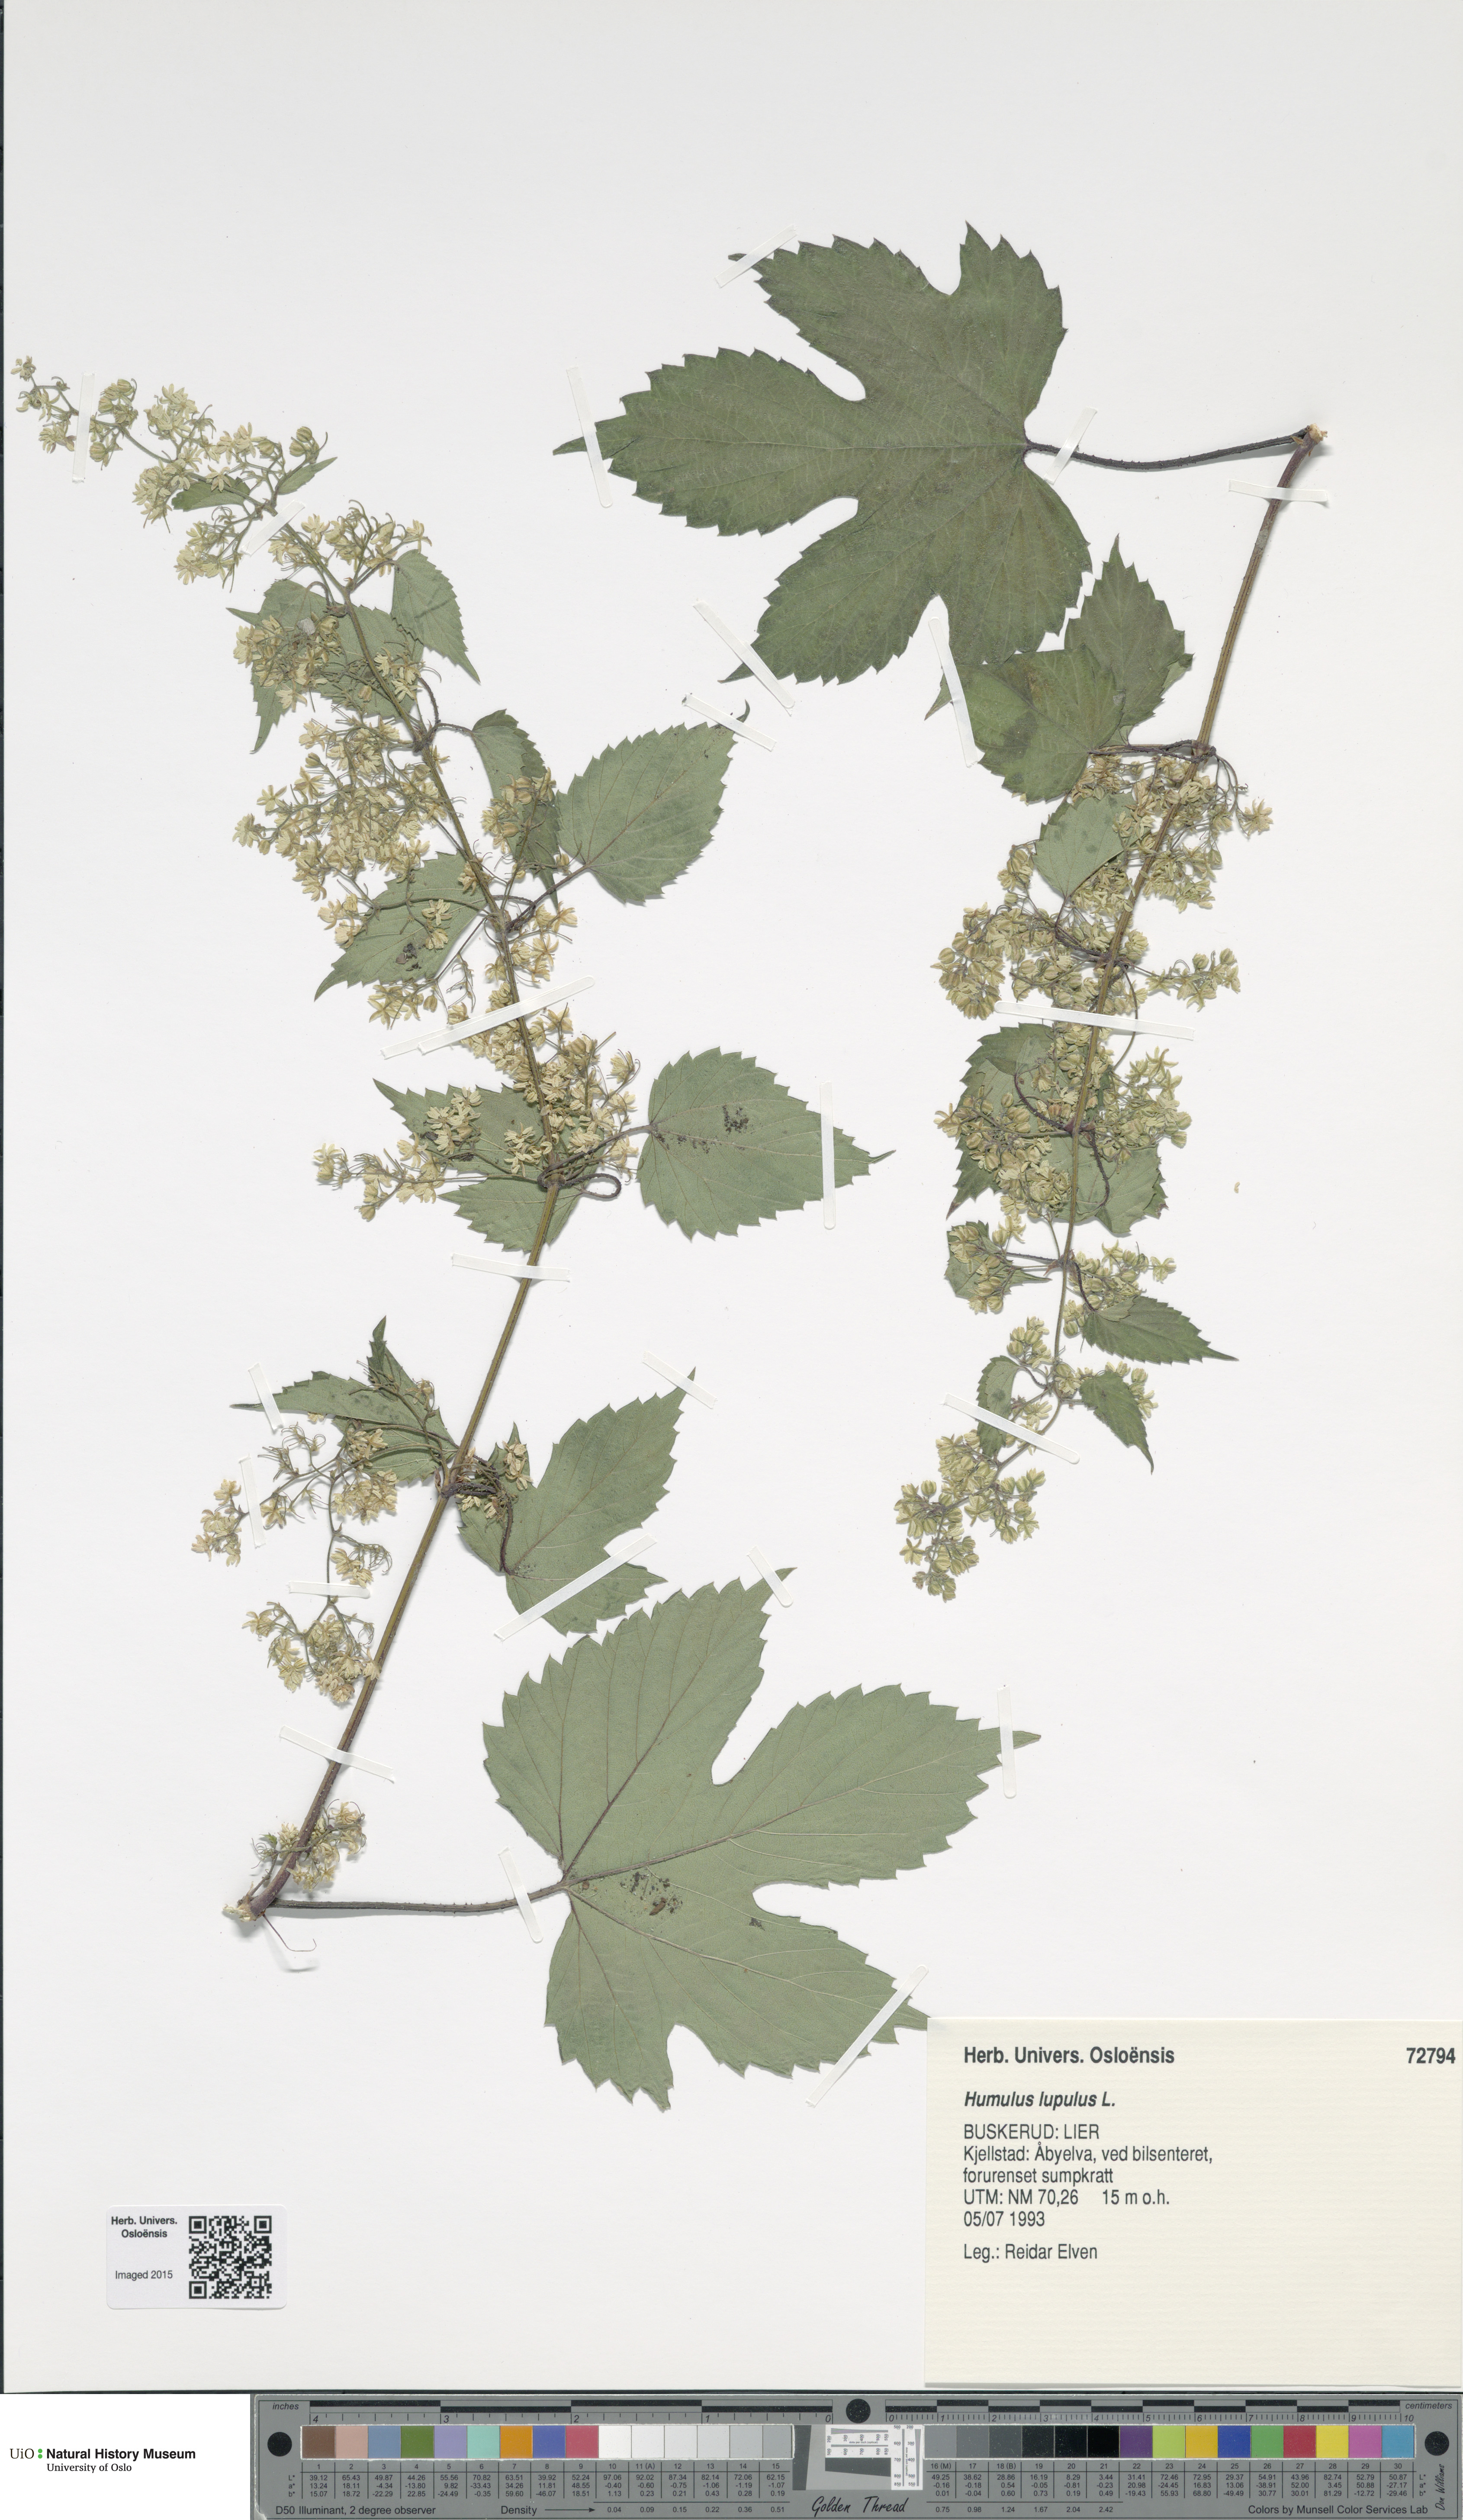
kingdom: Plantae
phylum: Tracheophyta
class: Magnoliopsida
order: Rosales
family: Cannabaceae
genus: Humulus
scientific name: Humulus lupulus
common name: Hop
